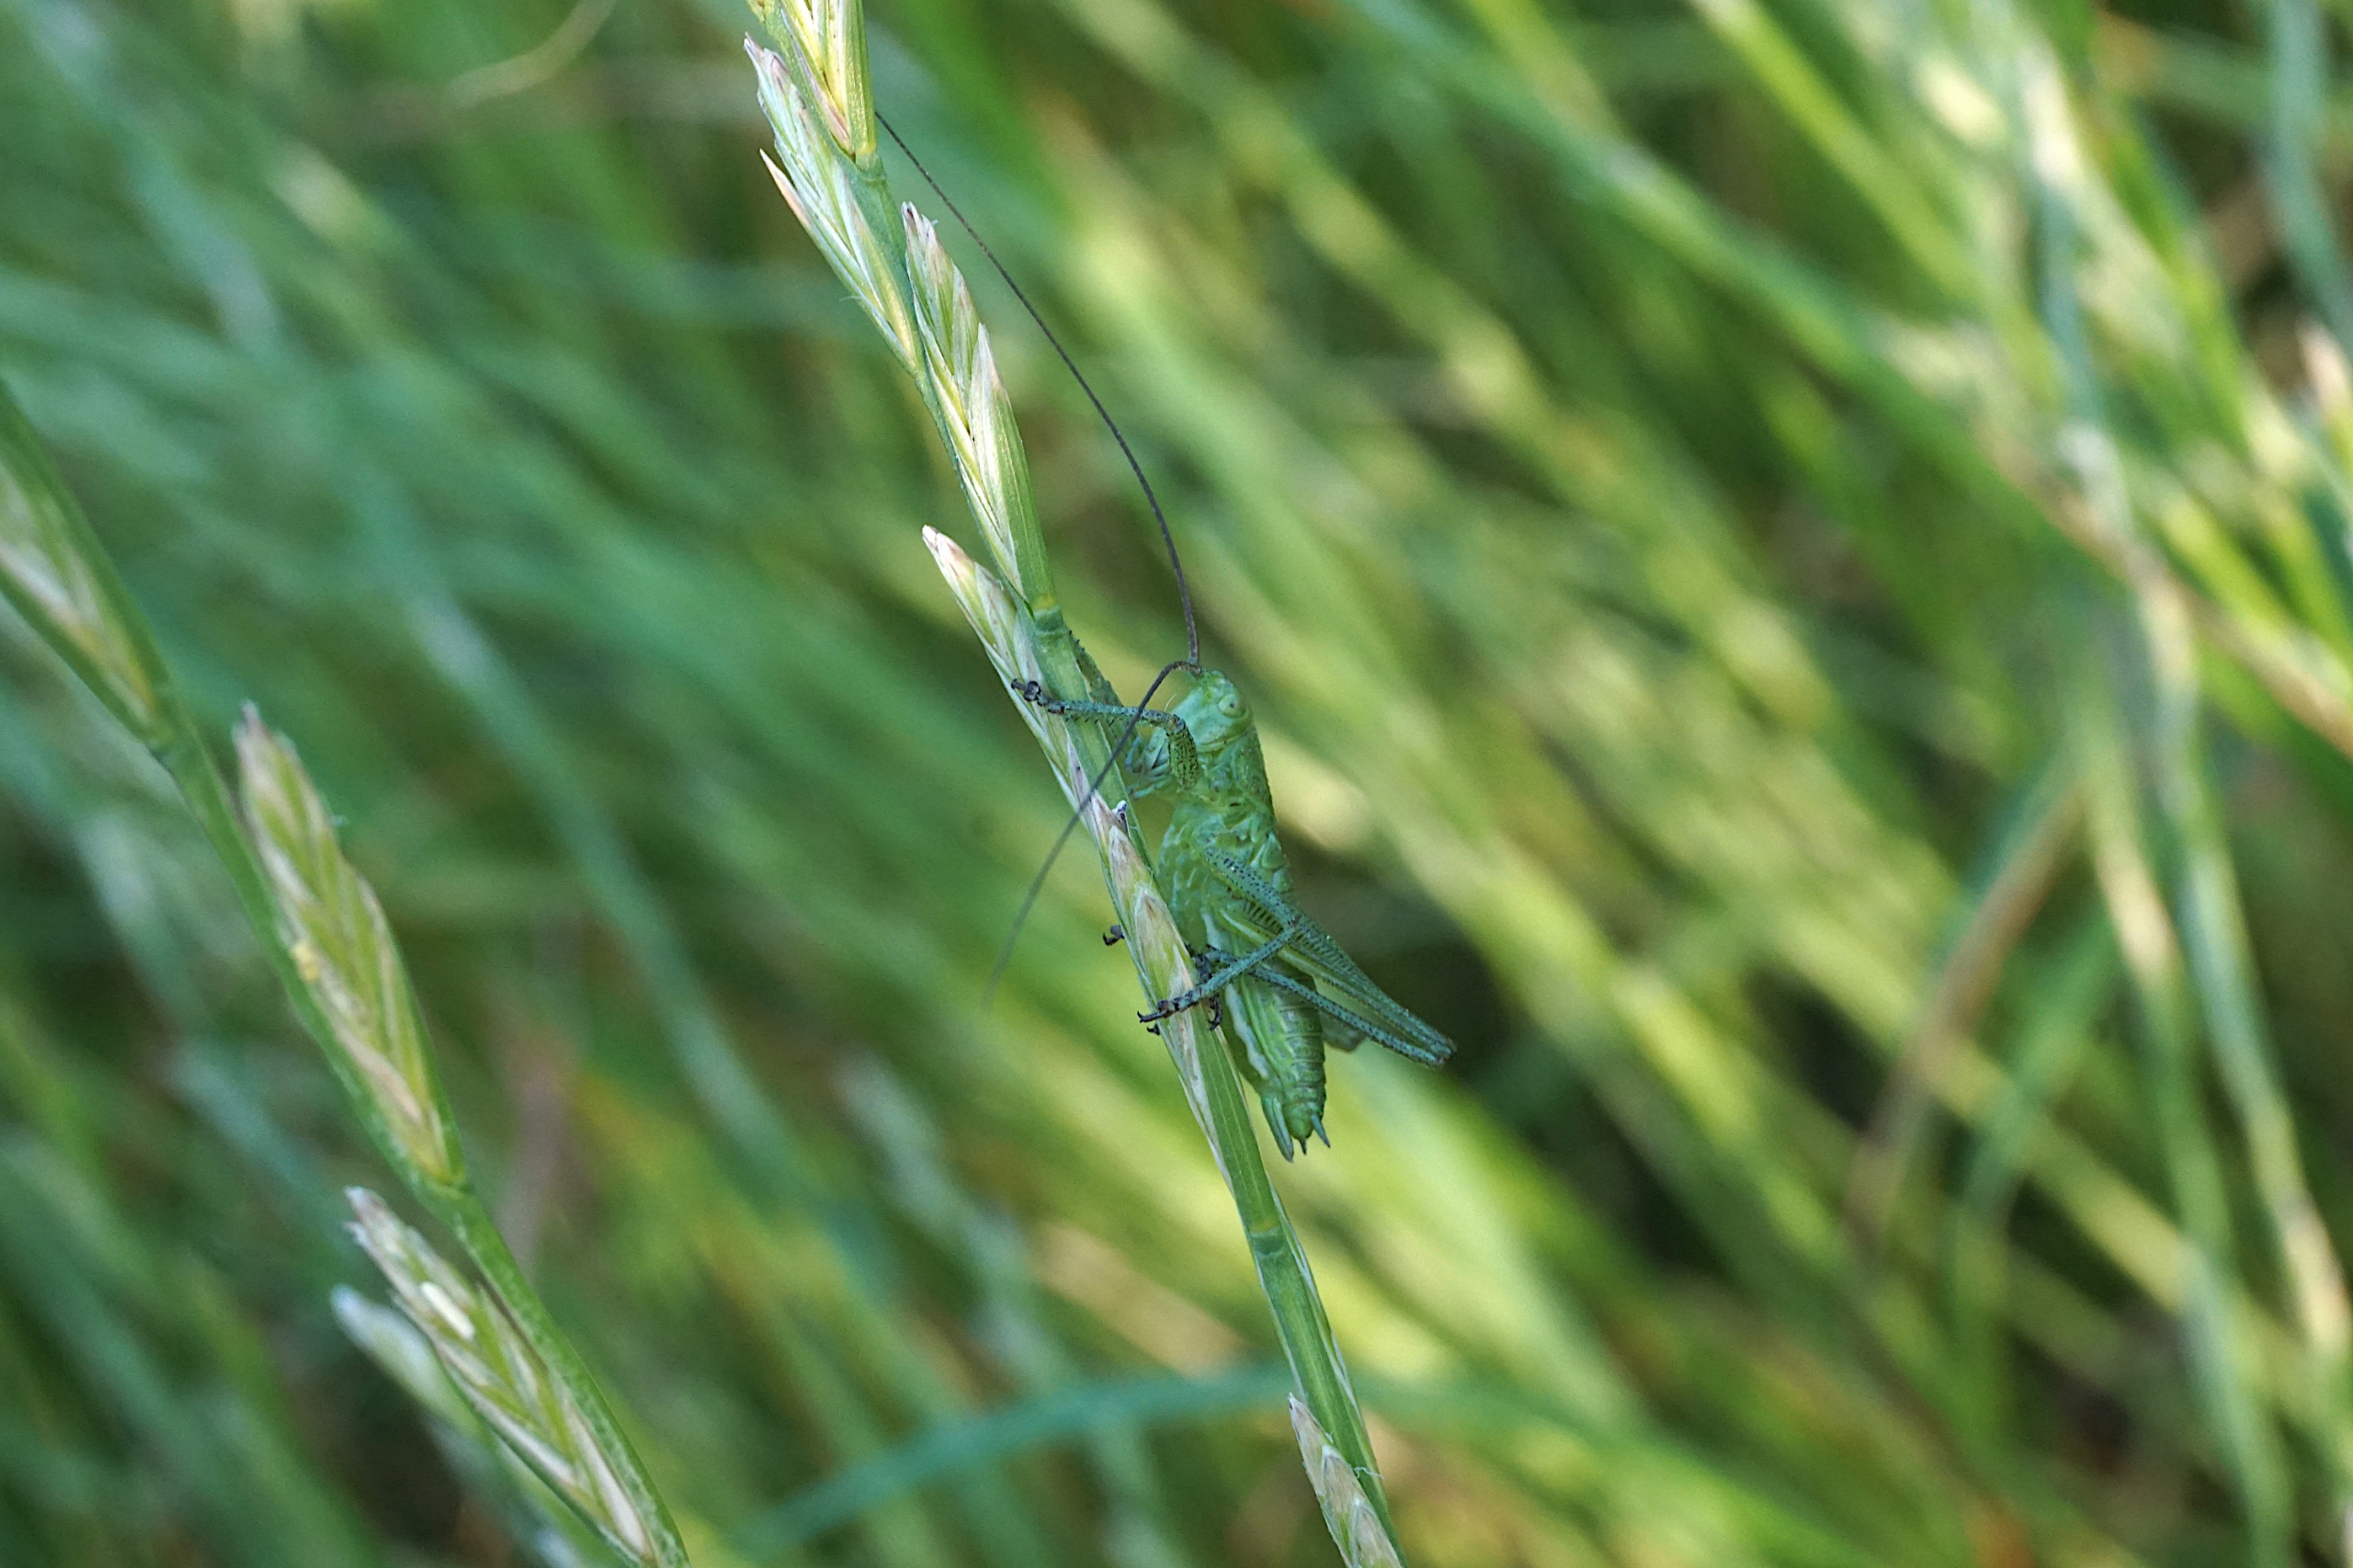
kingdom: Animalia
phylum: Arthropoda
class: Insecta
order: Orthoptera
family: Tettigoniidae
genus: Tettigonia
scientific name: Tettigonia viridissima
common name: Stor grøn løvgræshoppe
